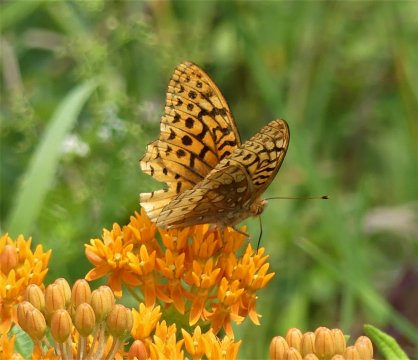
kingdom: Animalia
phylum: Arthropoda
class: Insecta
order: Lepidoptera
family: Nymphalidae
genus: Speyeria
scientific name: Speyeria cybele
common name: Great Spangled Fritillary
